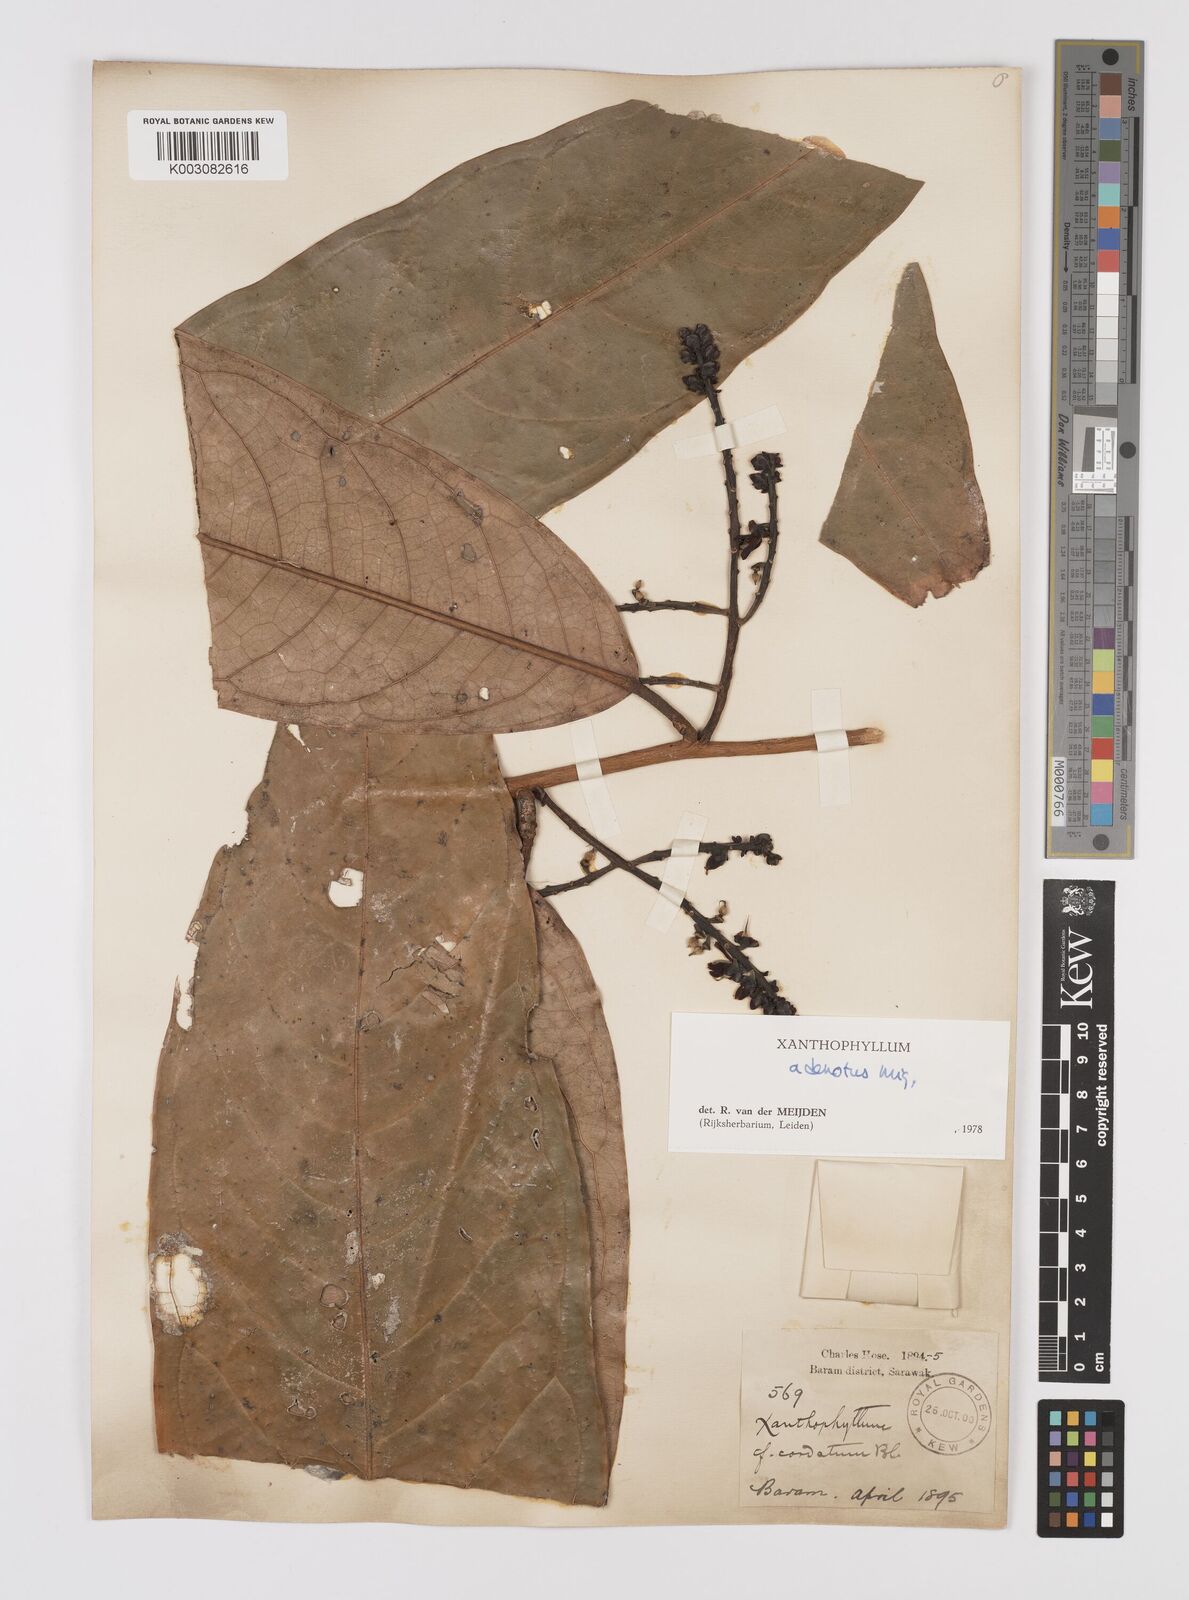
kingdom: Plantae
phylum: Tracheophyta
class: Magnoliopsida
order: Fabales
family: Polygalaceae
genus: Xanthophyllum
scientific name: Xanthophyllum adenotus
